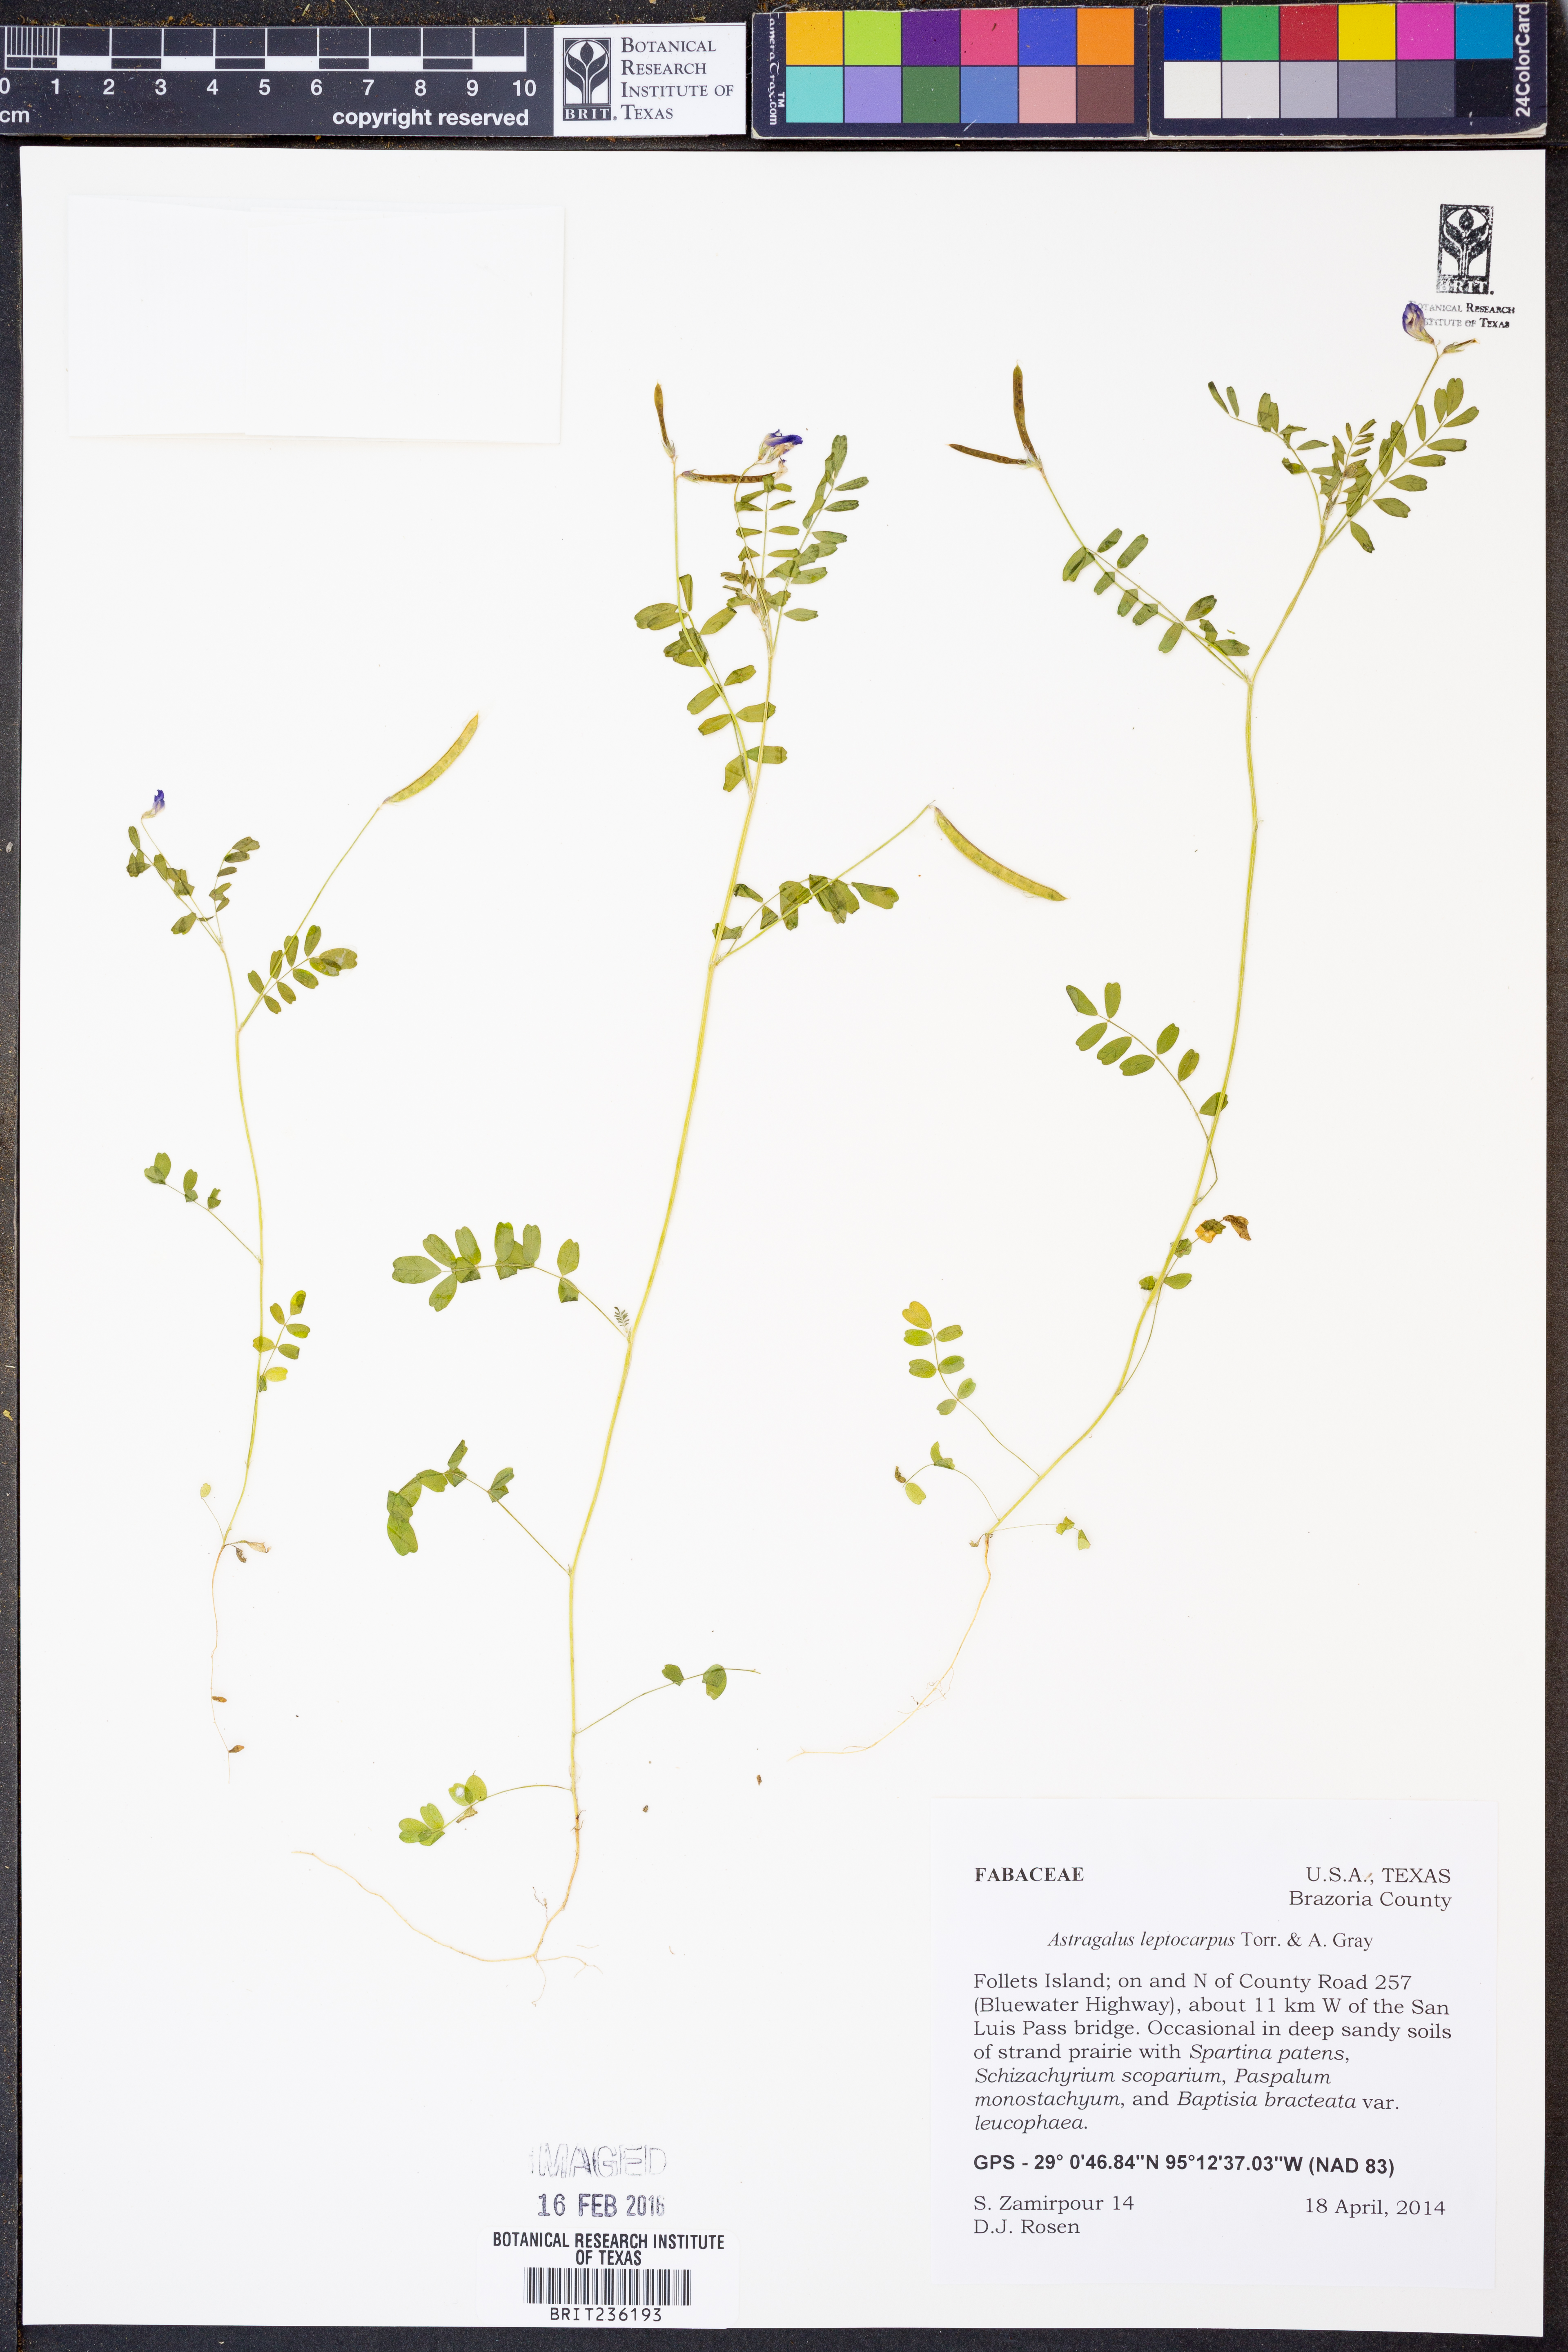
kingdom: Plantae
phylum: Tracheophyta
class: Magnoliopsida
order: Fabales
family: Fabaceae
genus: Astragalus
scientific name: Astragalus leptocarpus
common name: Bodkin milk-vetch
